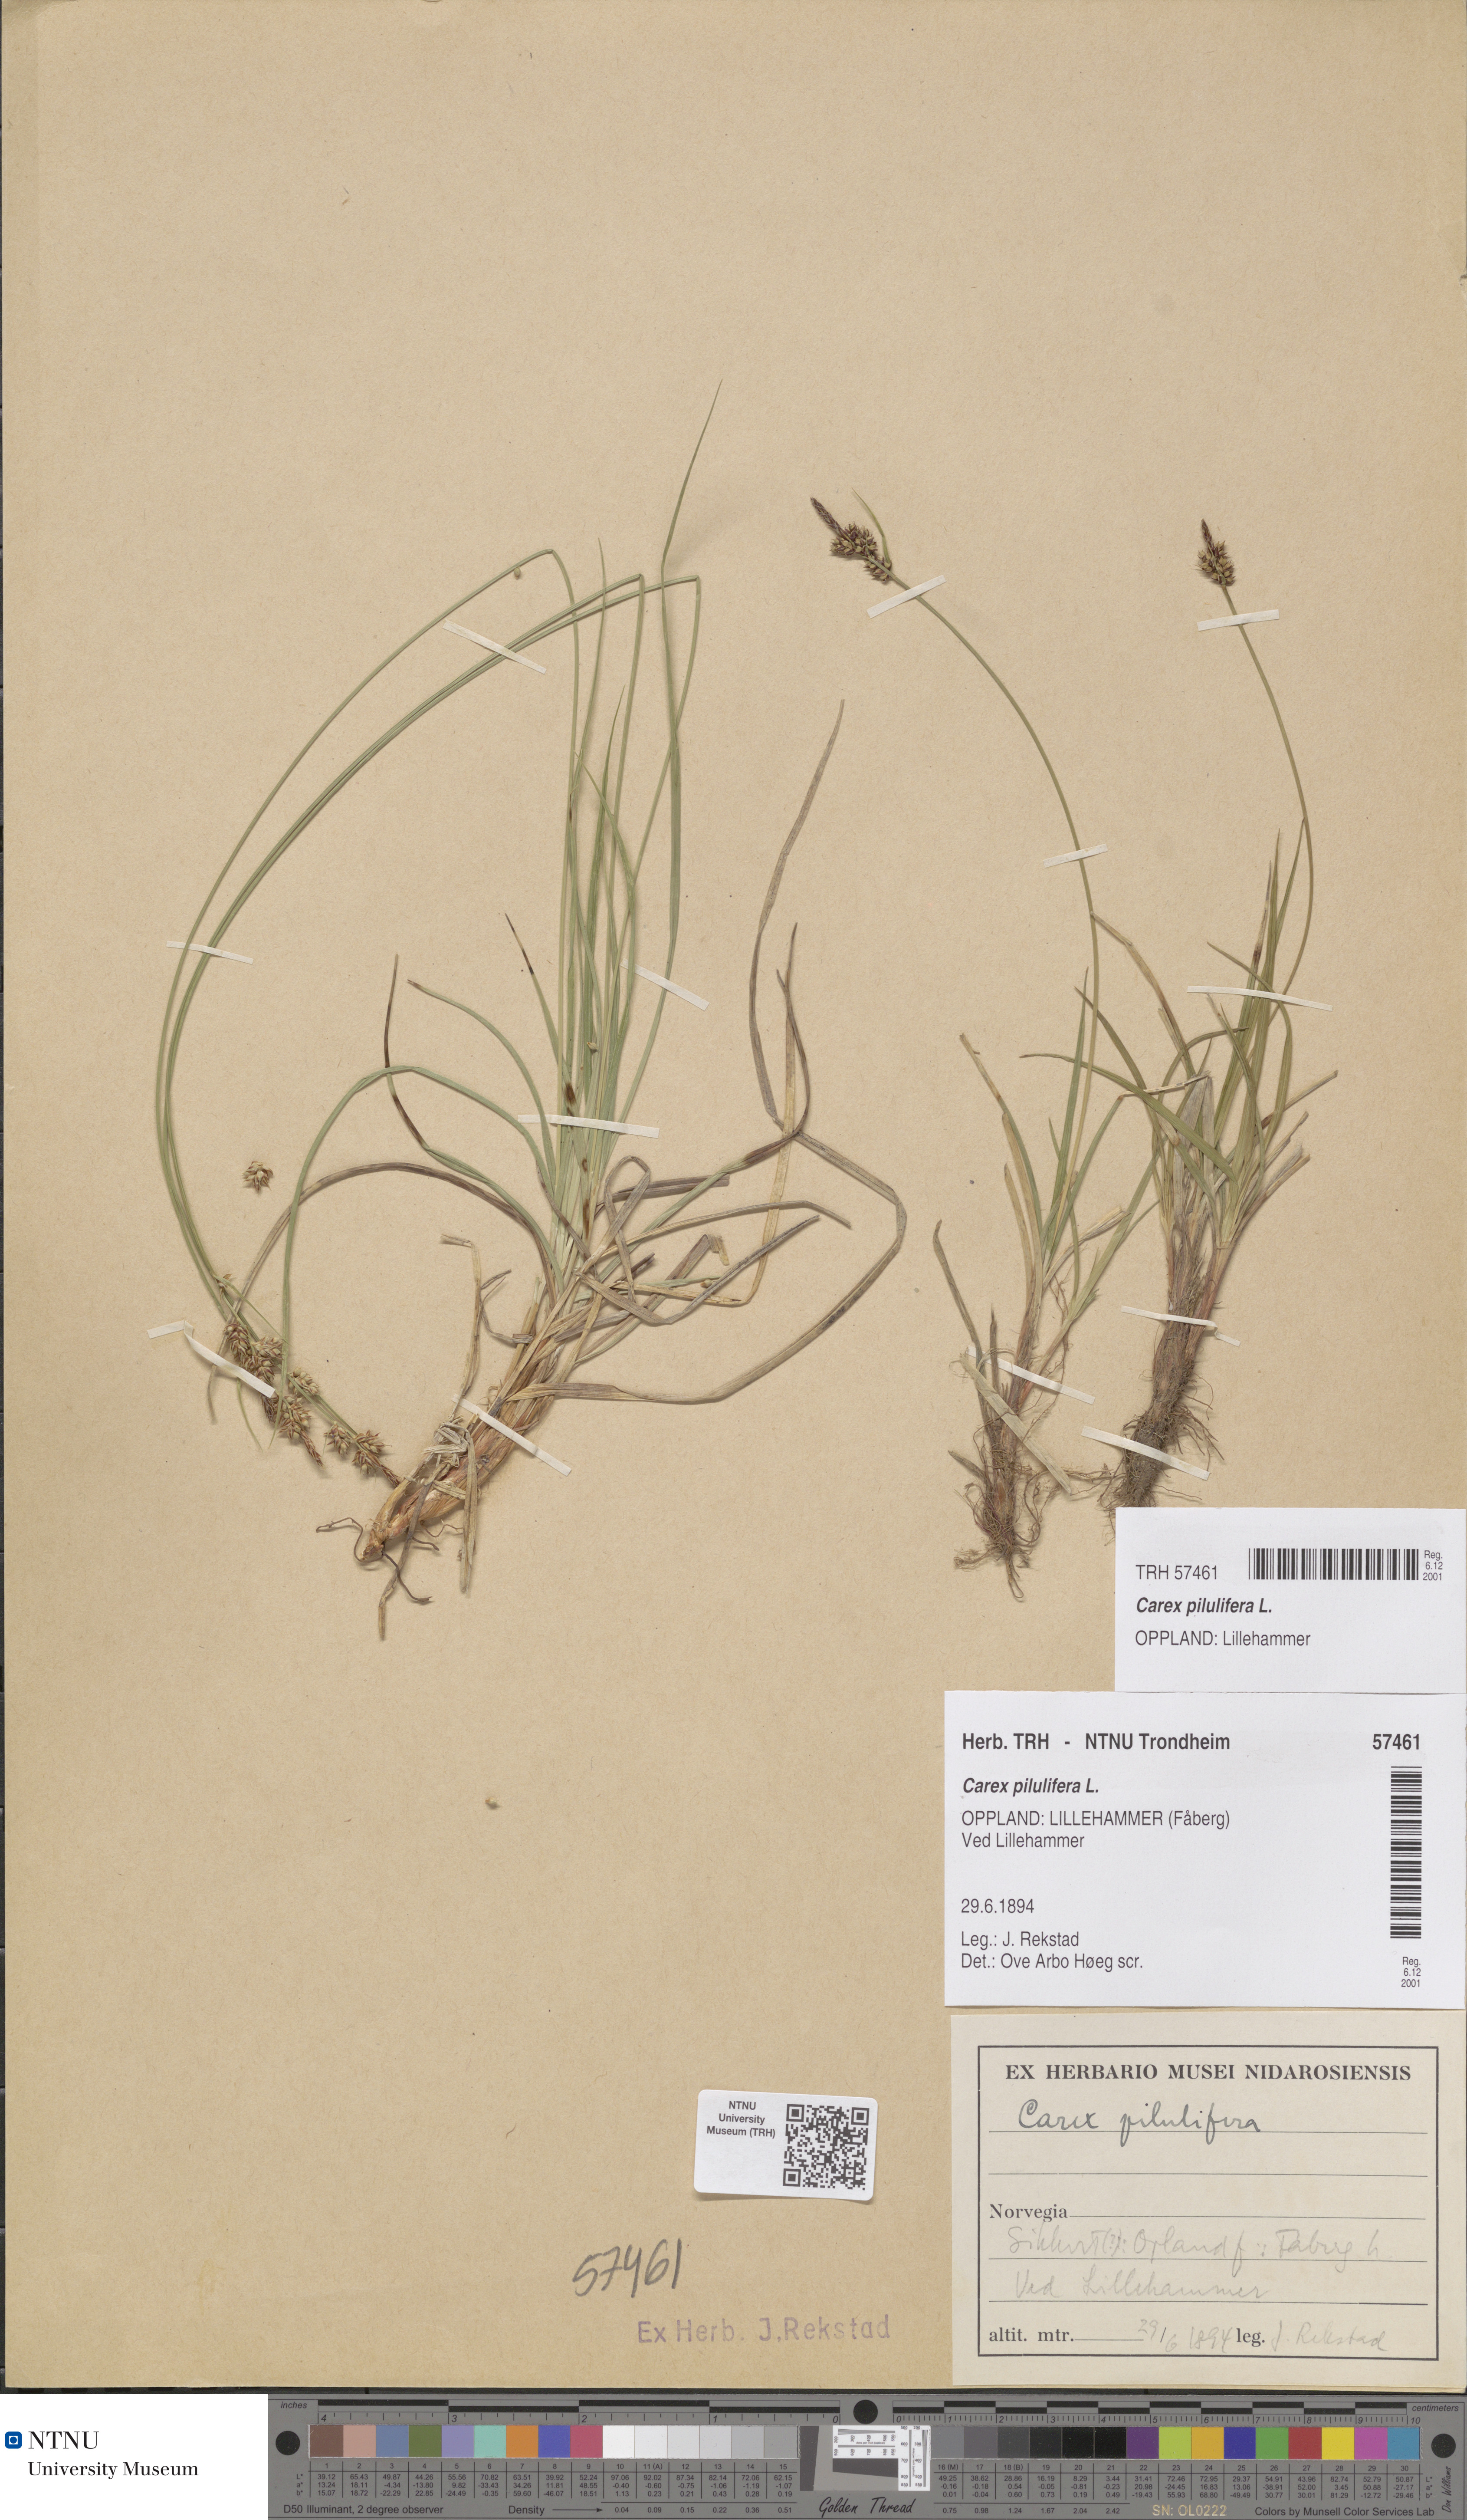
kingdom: Plantae
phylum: Tracheophyta
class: Liliopsida
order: Poales
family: Cyperaceae
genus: Carex
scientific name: Carex pilulifera
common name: Pill sedge
